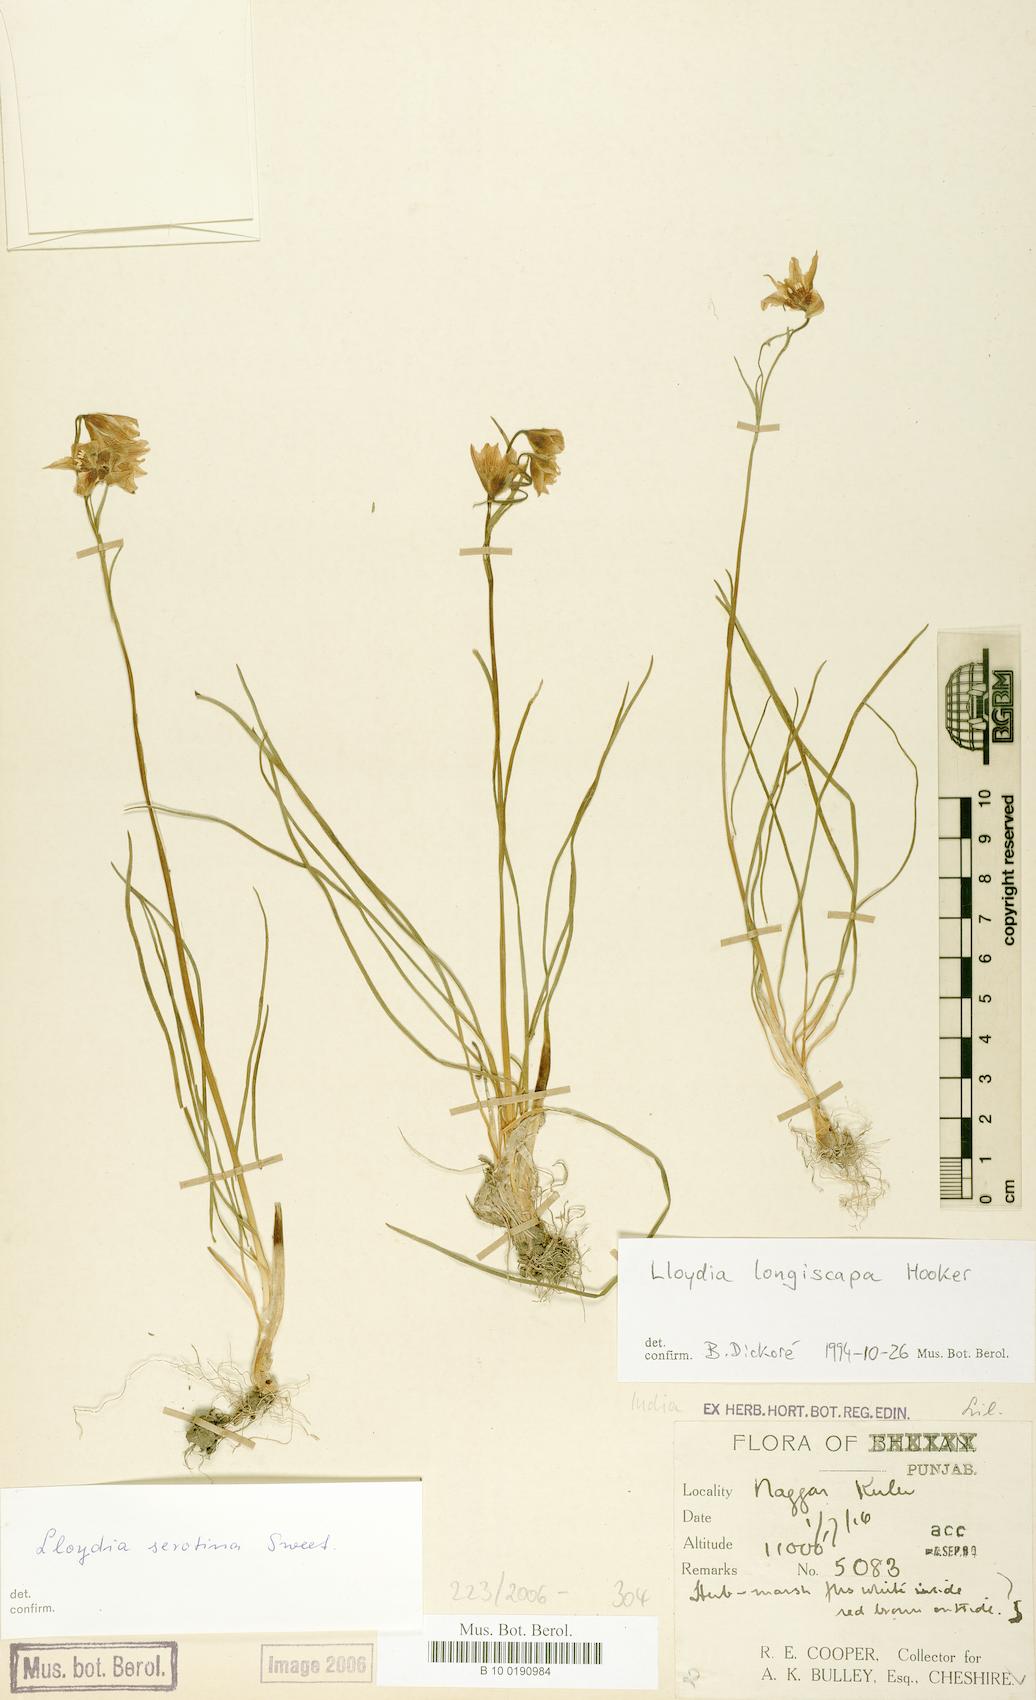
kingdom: Plantae
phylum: Tracheophyta
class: Liliopsida
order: Liliales
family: Liliaceae
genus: Gagea
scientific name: Gagea lasiantha
